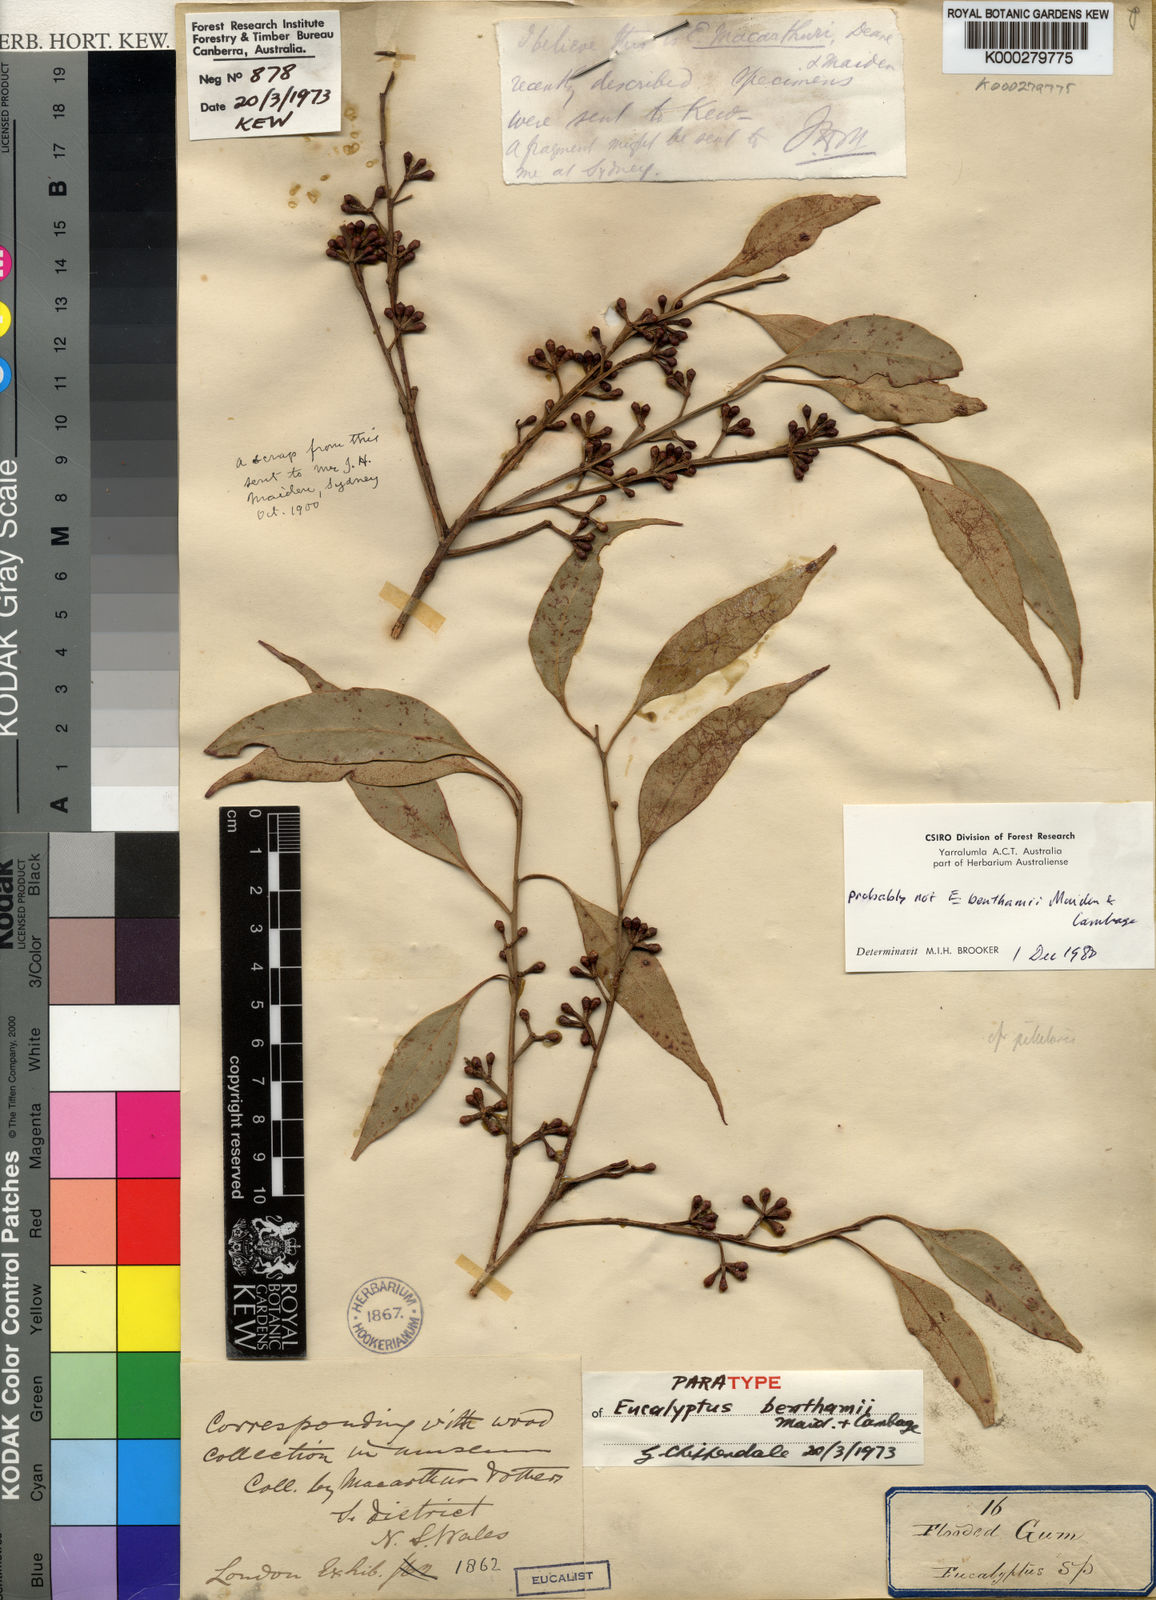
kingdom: Plantae
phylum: Tracheophyta
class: Magnoliopsida
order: Myrtales
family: Myrtaceae
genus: Eucalyptus
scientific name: Eucalyptus viminalis
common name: Manna gum
